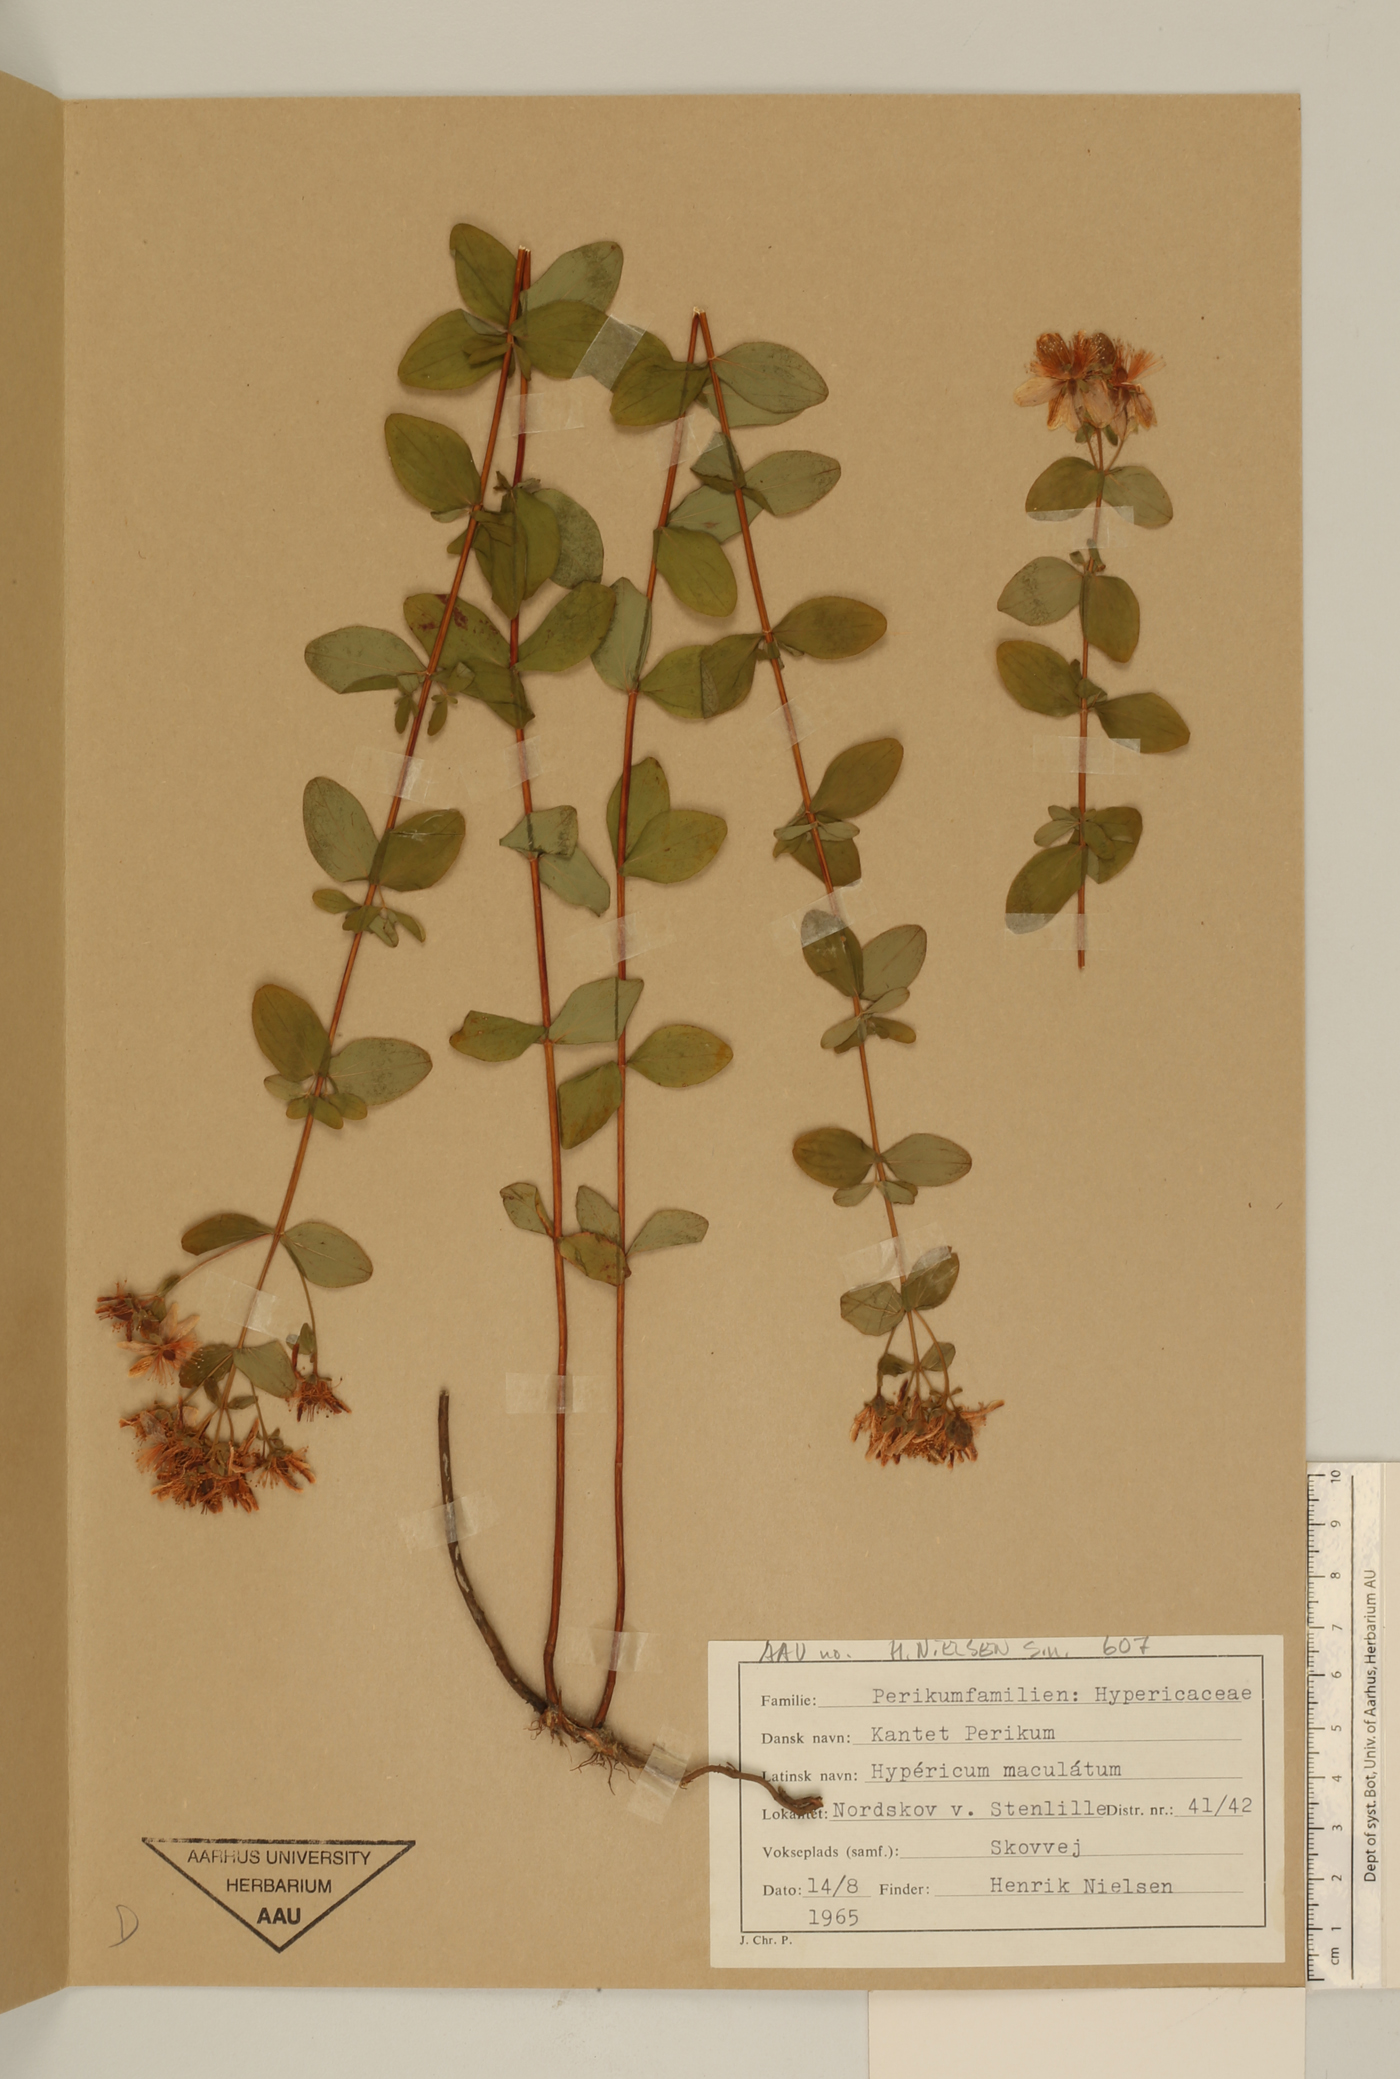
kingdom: Plantae
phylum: Tracheophyta
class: Magnoliopsida
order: Malpighiales
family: Hypericaceae
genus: Hypericum
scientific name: Hypericum maculatum
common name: Imperforate st. john's-wort
